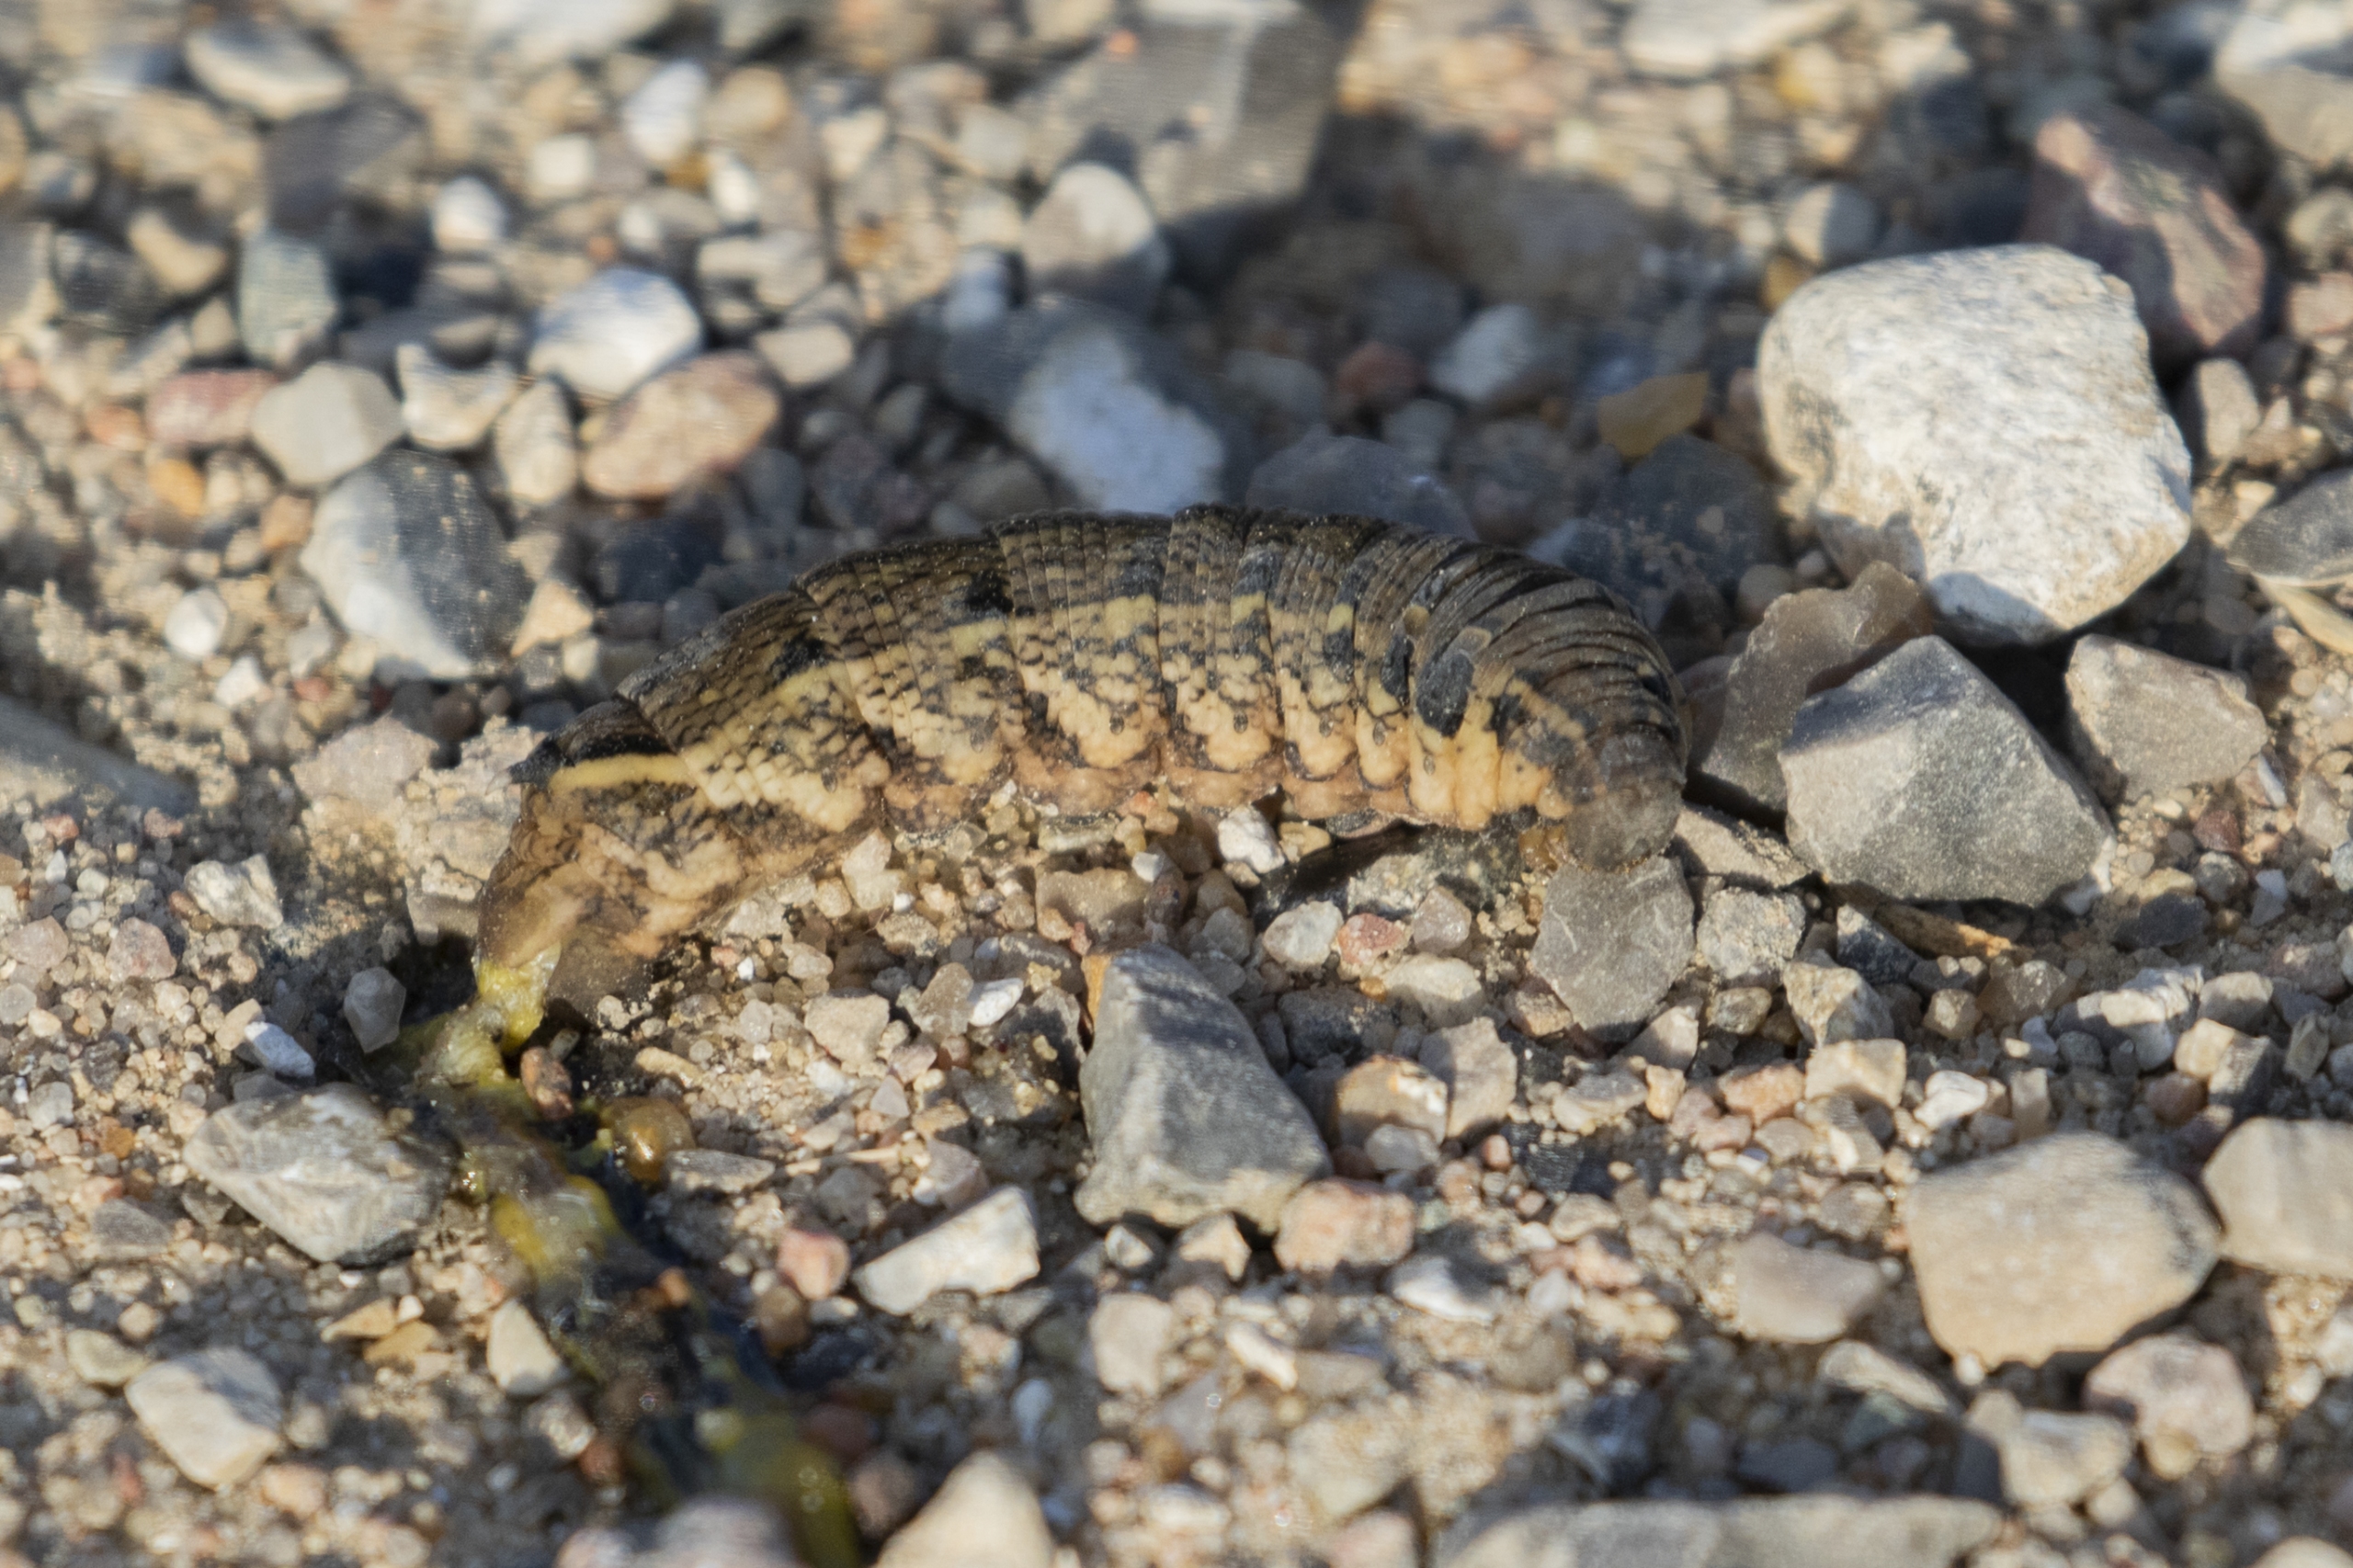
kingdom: Animalia
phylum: Arthropoda
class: Insecta
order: Lepidoptera
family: Sphingidae
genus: Deilephila
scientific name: Deilephila elpenor
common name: Dueurtsværmer
